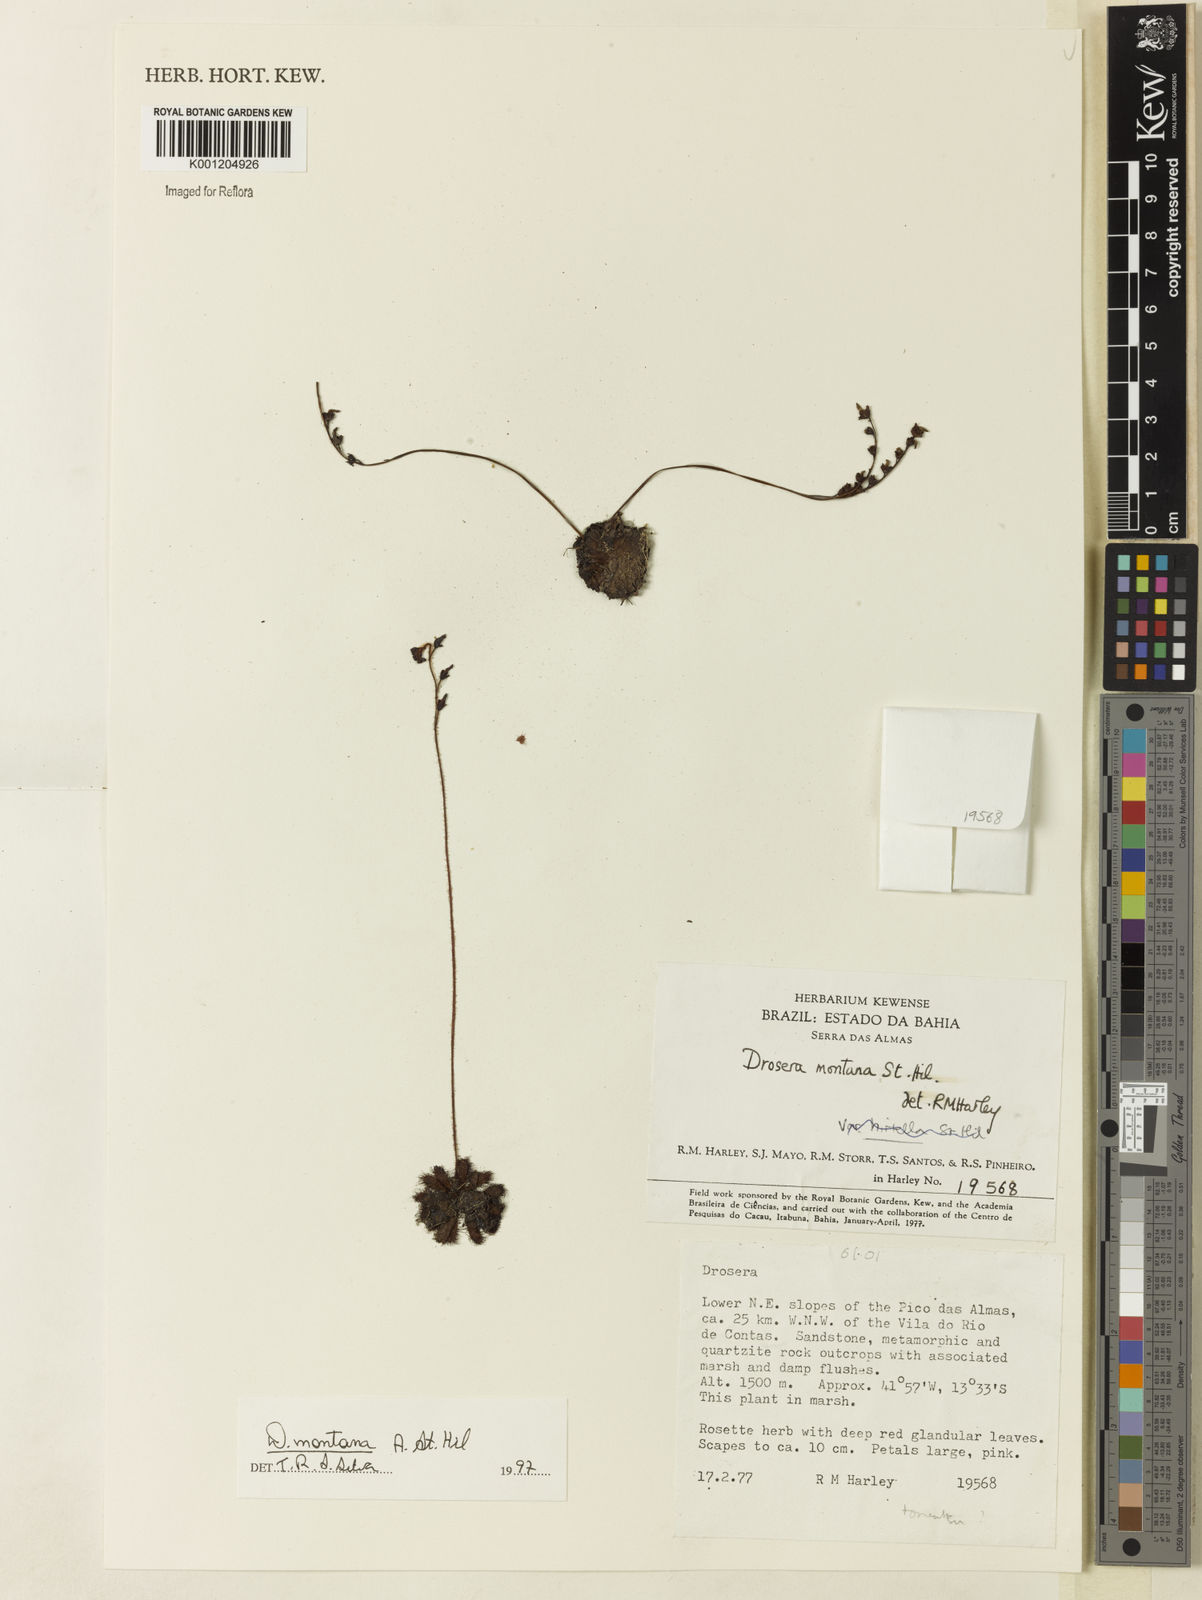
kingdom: Plantae
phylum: Tracheophyta
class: Magnoliopsida
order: Caryophyllales
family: Droseraceae
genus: Drosera
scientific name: Drosera montana
